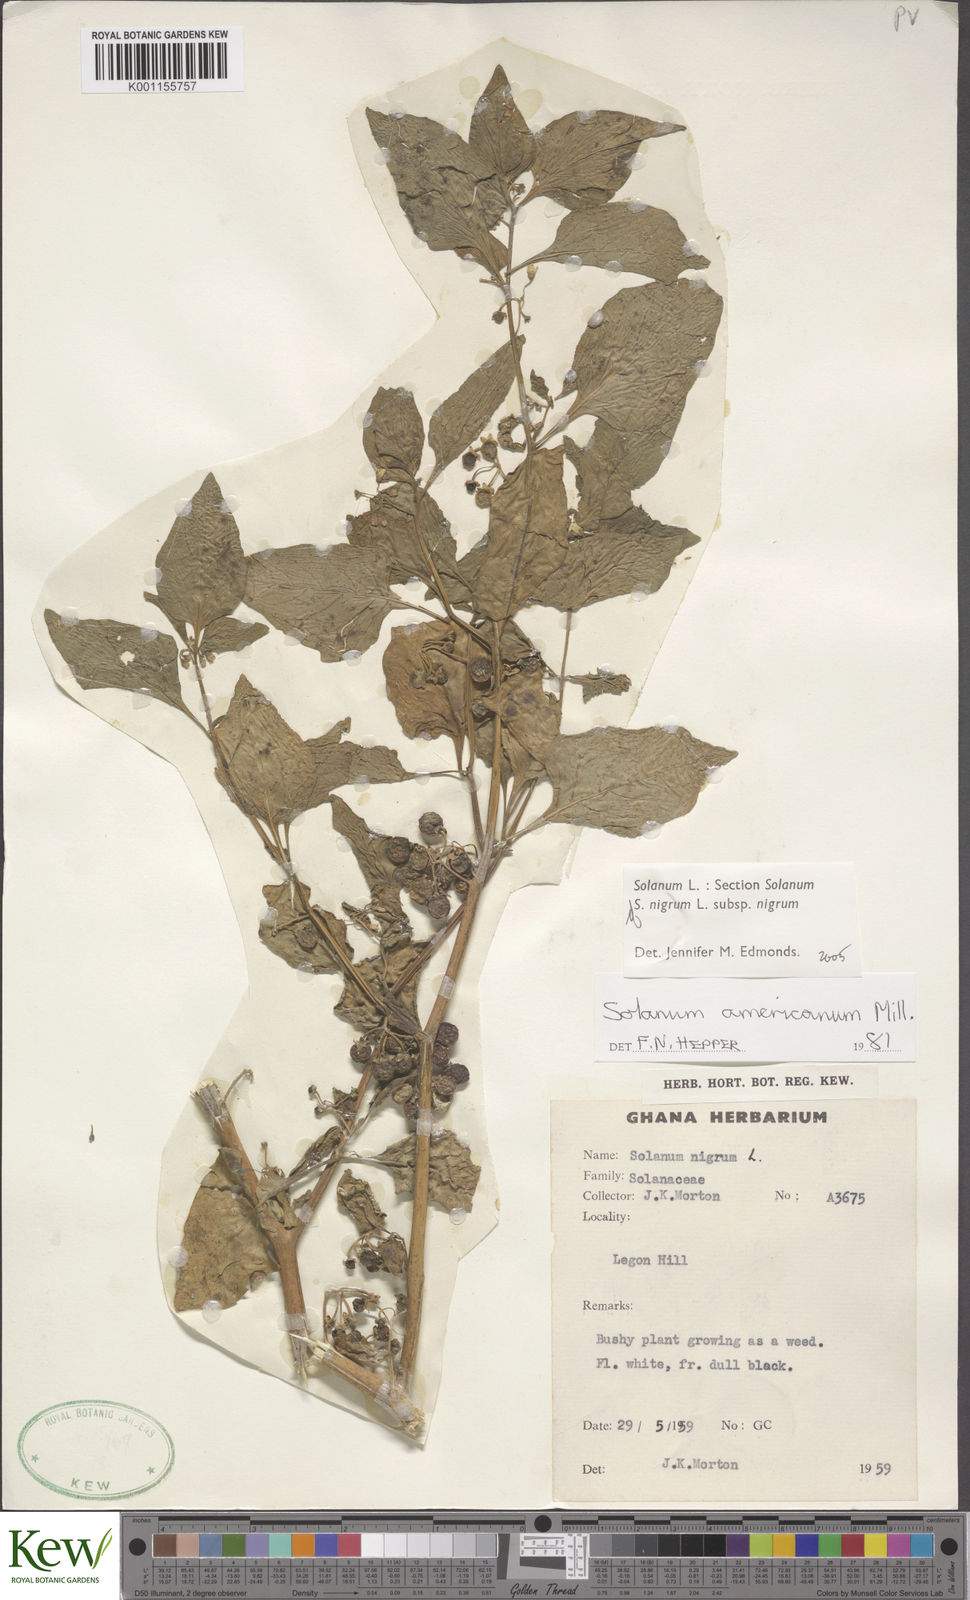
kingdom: Plantae
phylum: Tracheophyta
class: Magnoliopsida
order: Solanales
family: Solanaceae
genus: Solanum
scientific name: Solanum scabrum
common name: Garden-huckleberry
